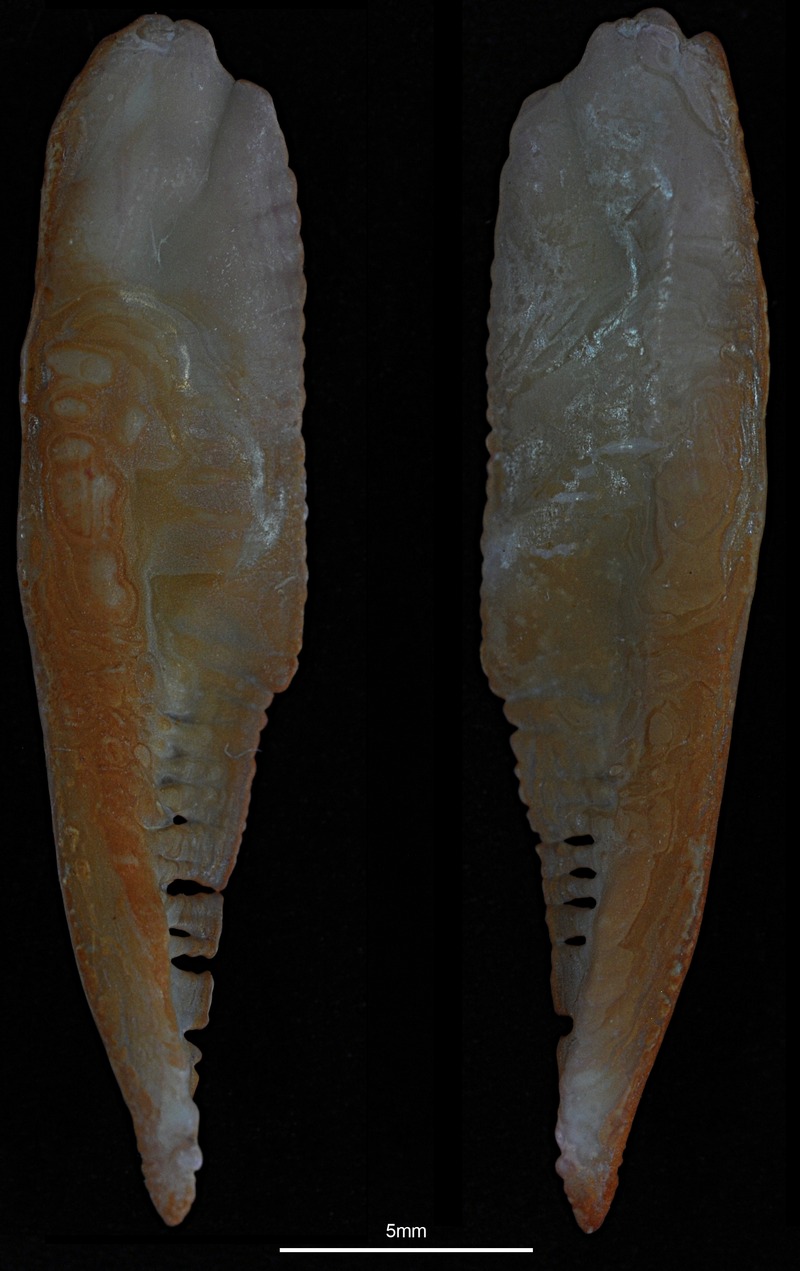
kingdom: Animalia
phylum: Chordata
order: Gadiformes
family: Gadidae
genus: Merlangius
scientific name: Merlangius merlangus
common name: Whiting
